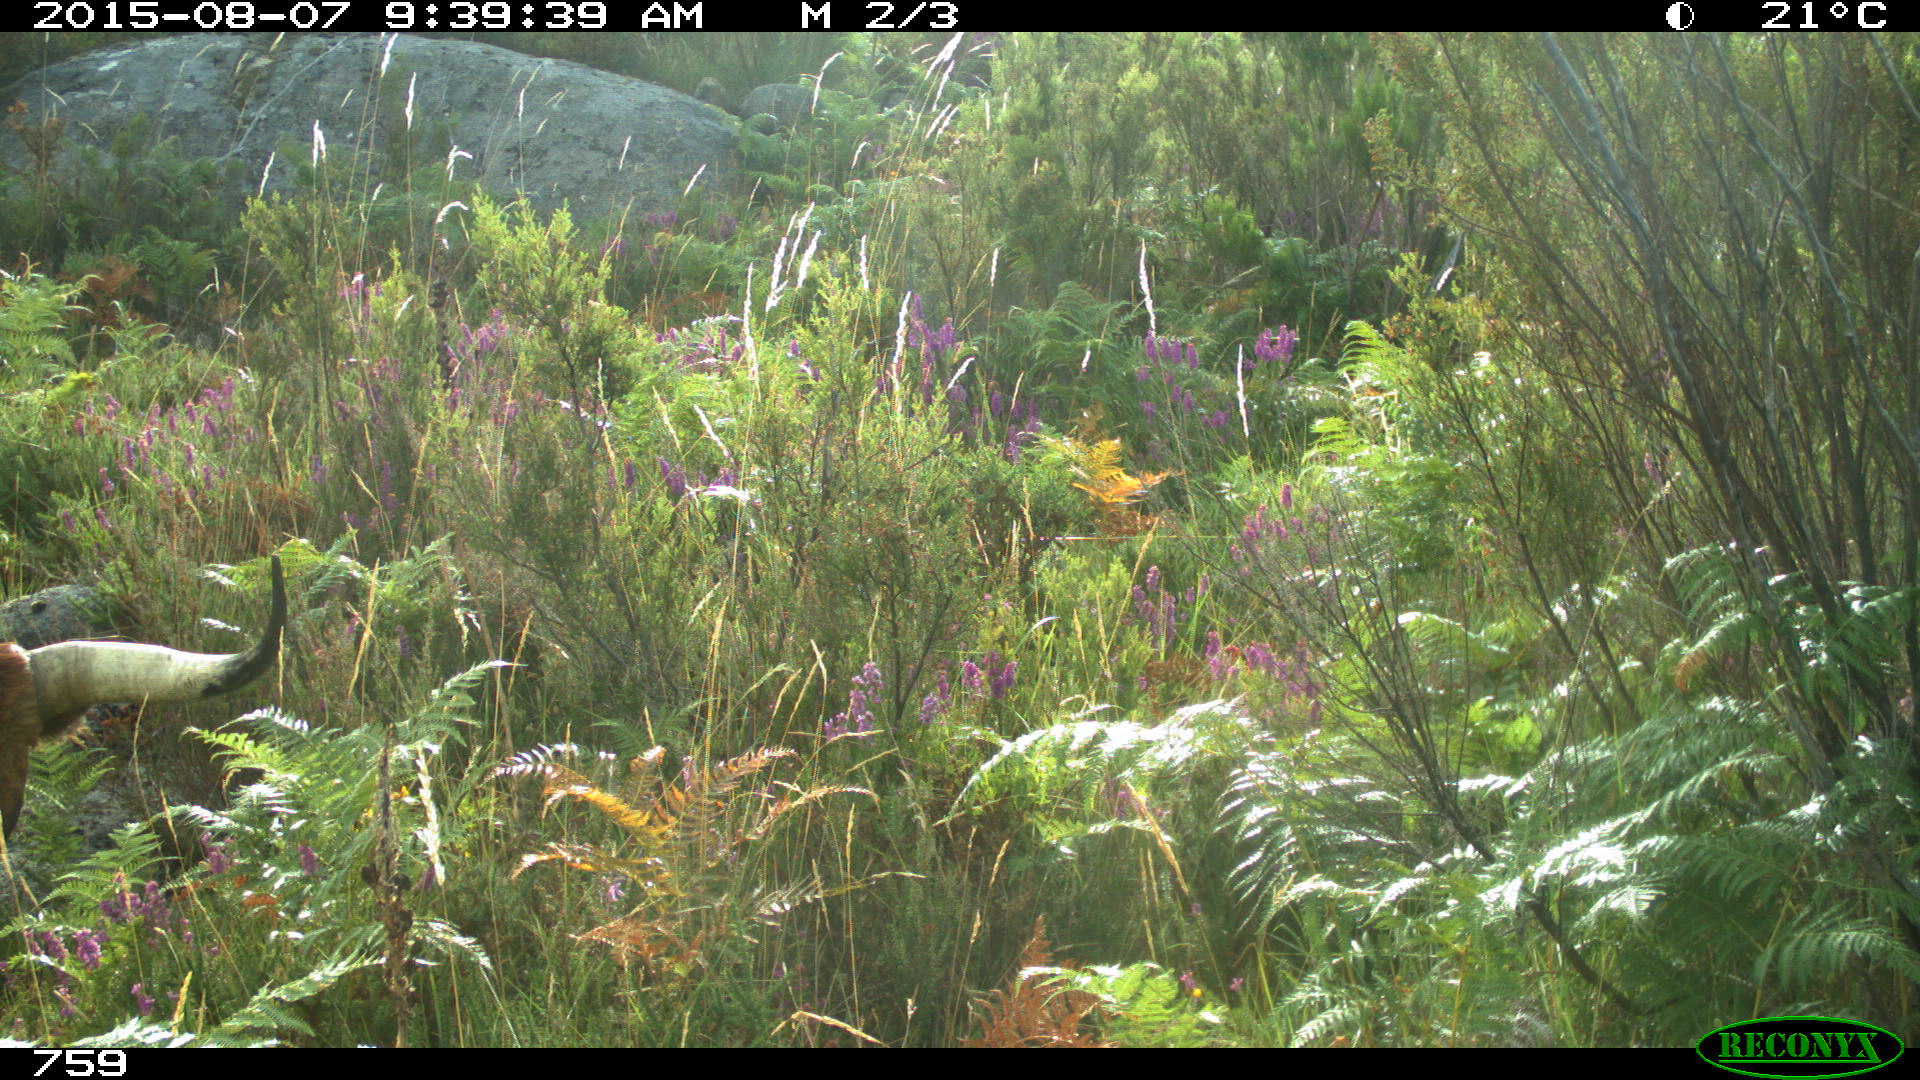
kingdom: Animalia
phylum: Chordata
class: Mammalia
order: Artiodactyla
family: Bovidae
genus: Bos
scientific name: Bos taurus
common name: Domesticated cattle
